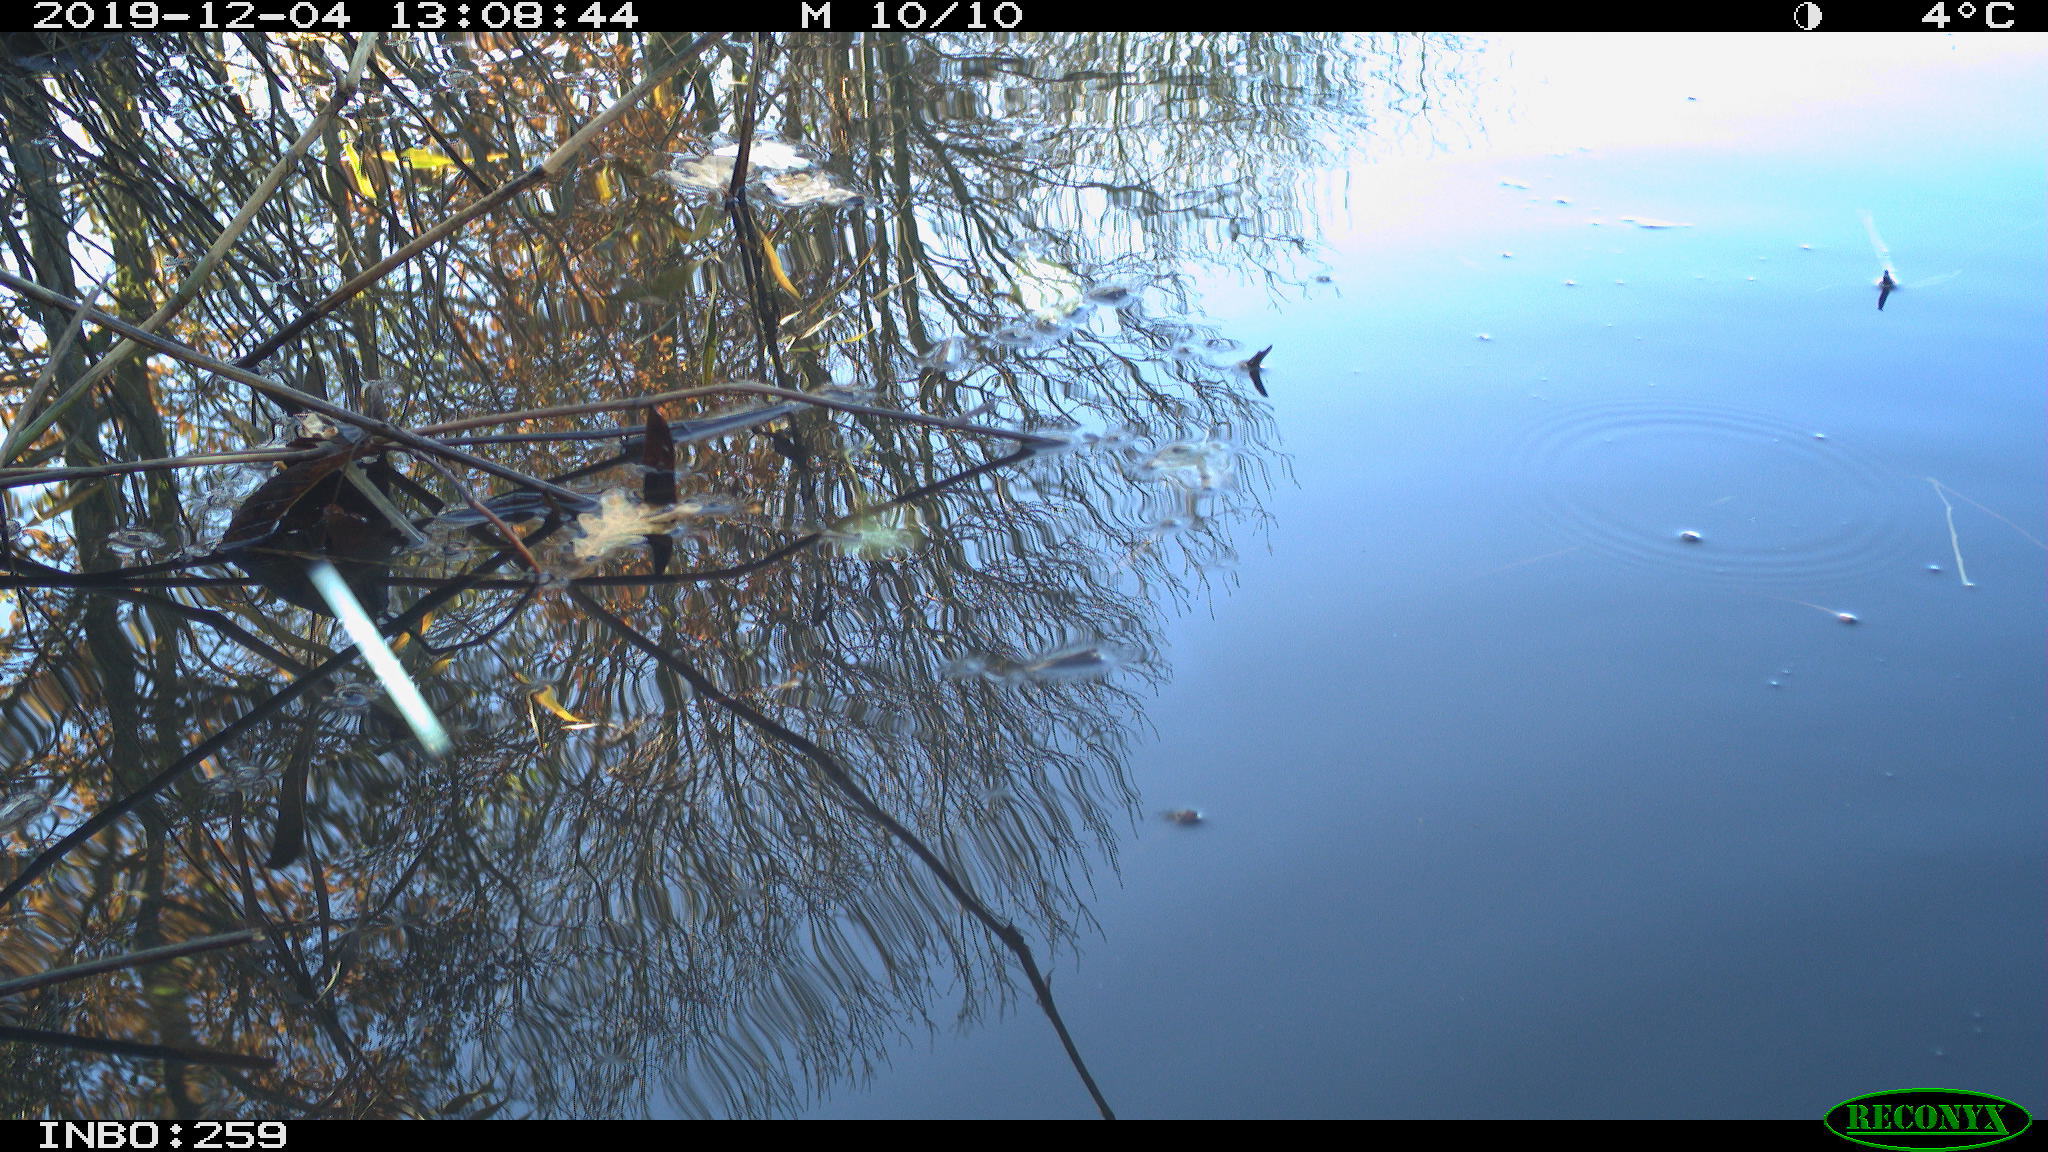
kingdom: Animalia
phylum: Chordata
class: Aves
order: Gruiformes
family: Rallidae
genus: Gallinula
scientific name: Gallinula chloropus
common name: Common moorhen
